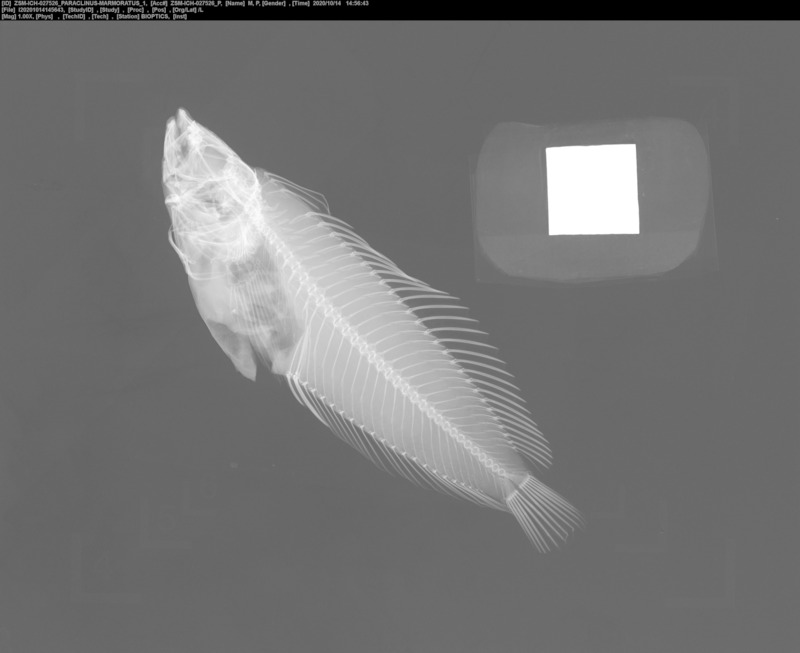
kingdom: Animalia
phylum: Chordata
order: Perciformes
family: Labrisomidae
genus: Paraclinus
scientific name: Paraclinus marmoratus
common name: Marbled blenny
